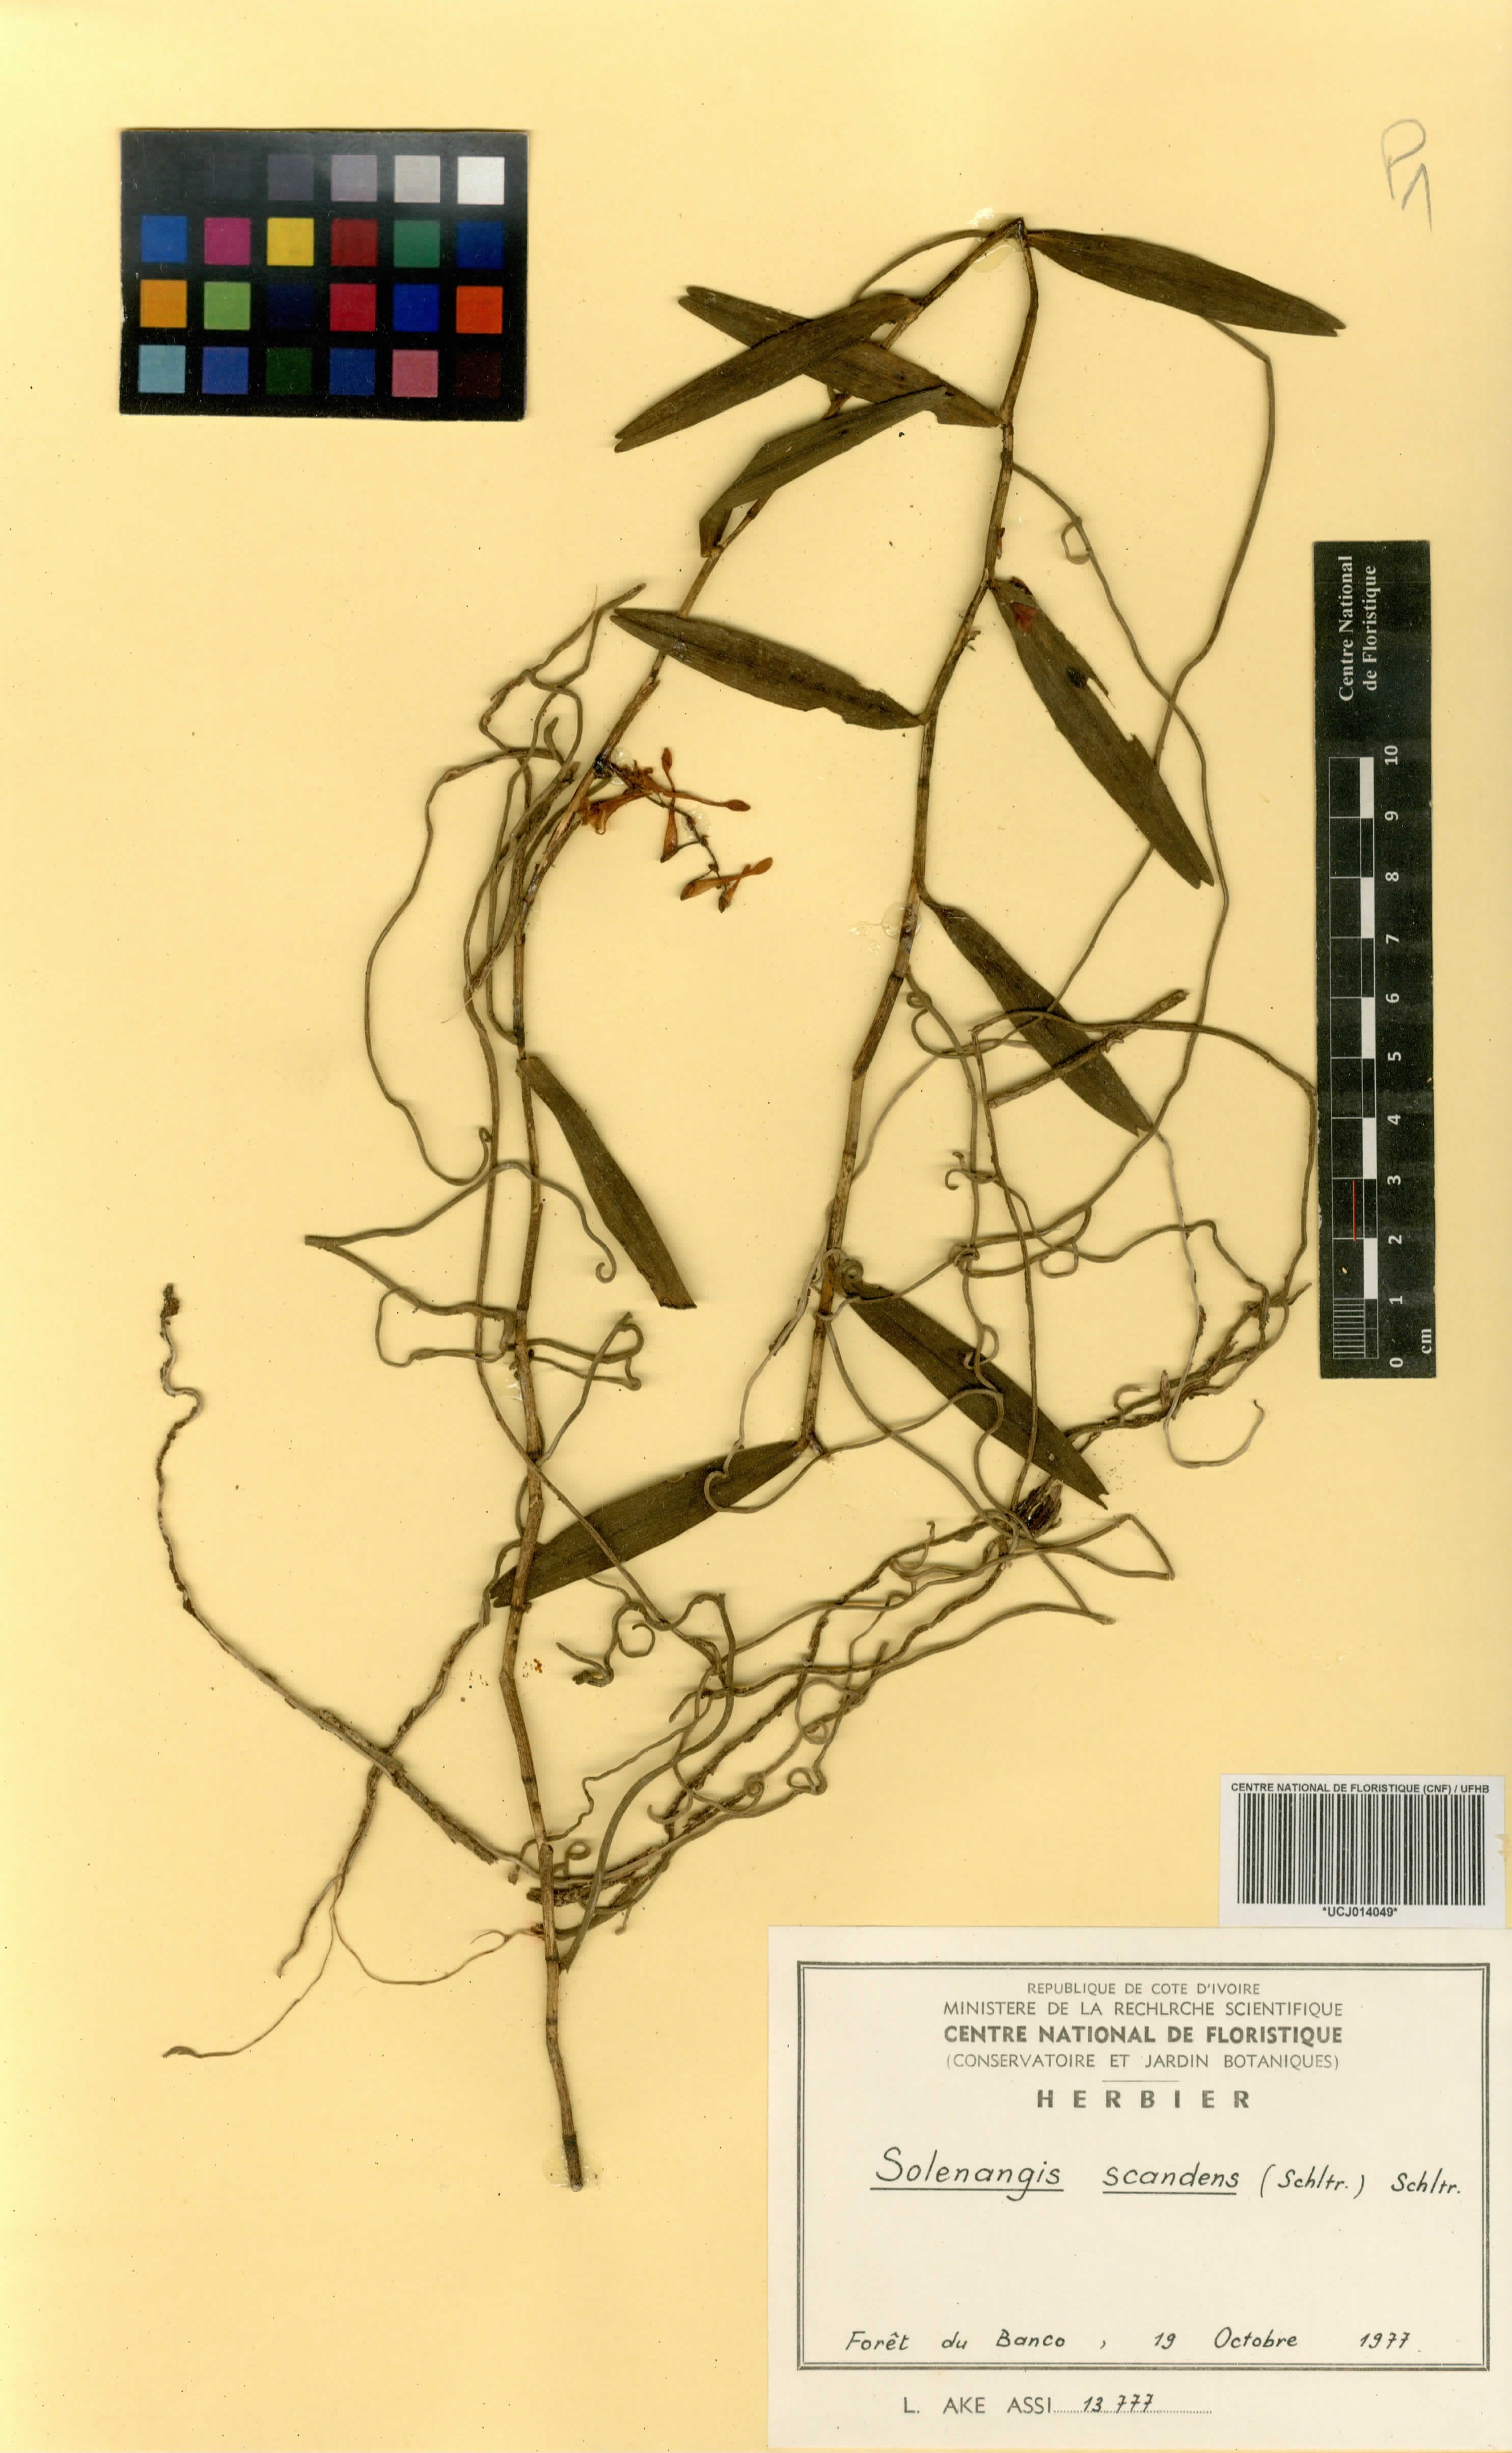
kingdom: Plantae
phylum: Tracheophyta
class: Liliopsida
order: Asparagales
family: Orchidaceae
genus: Solenangis
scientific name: Solenangis scandens
